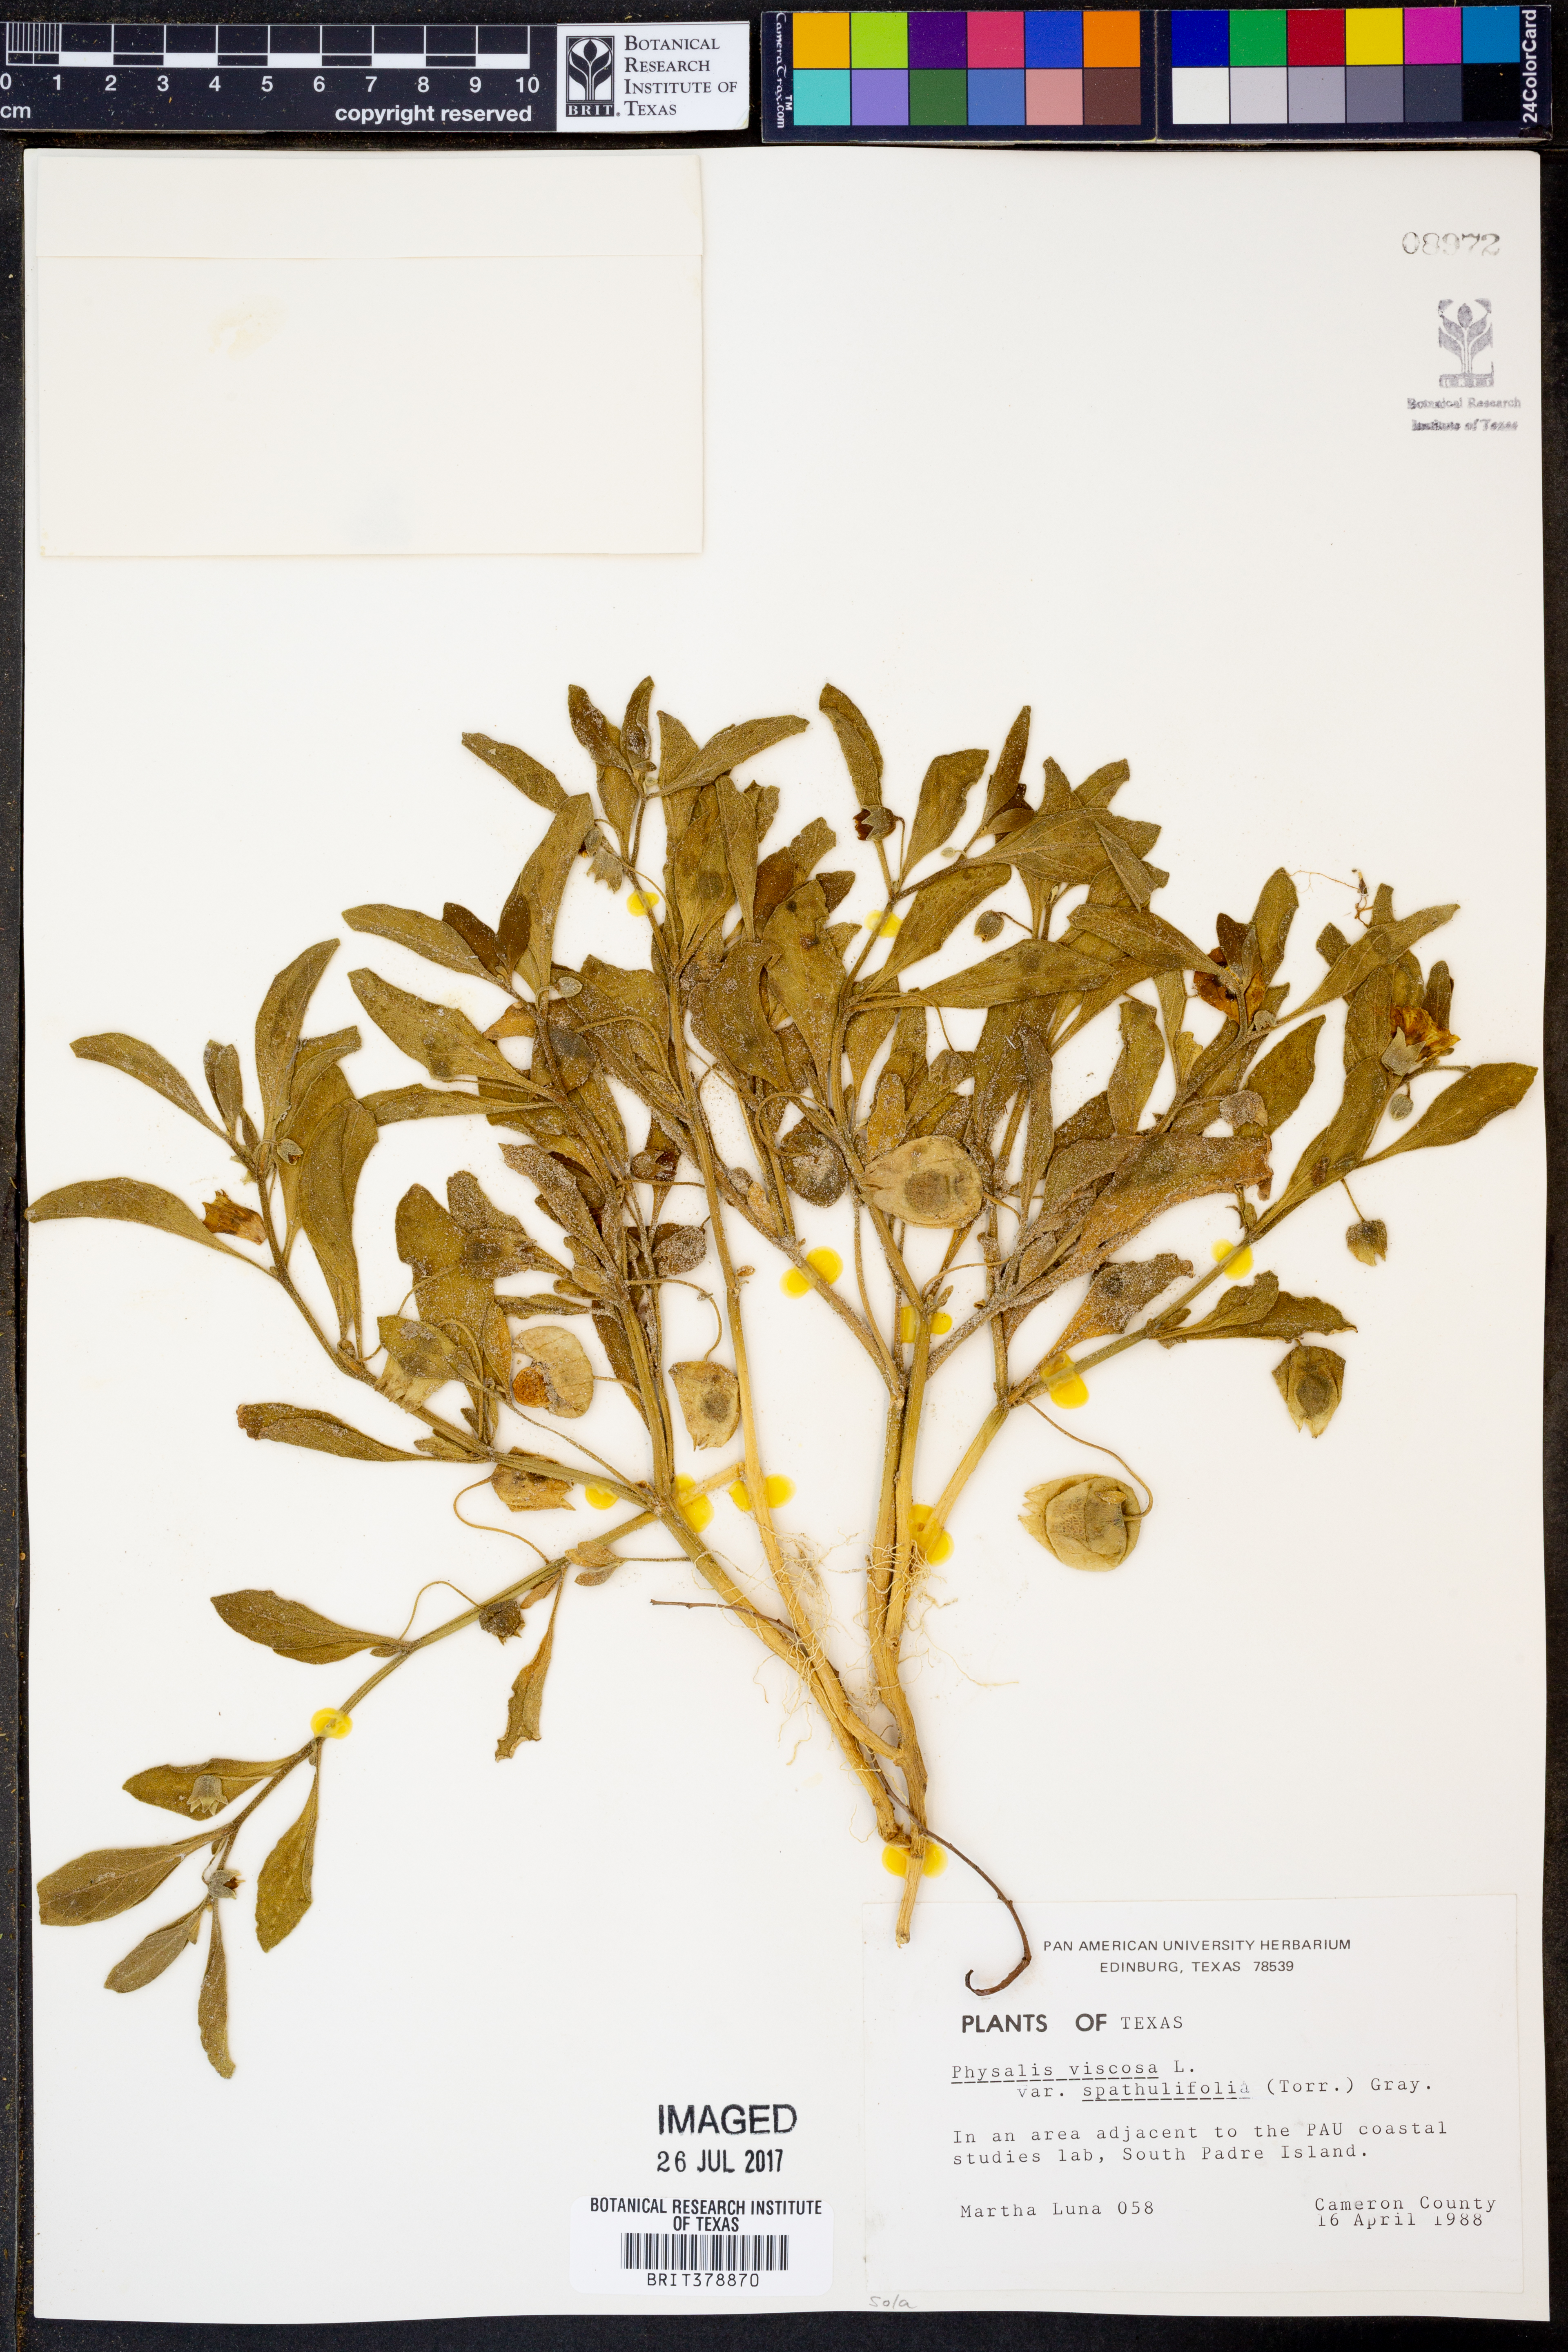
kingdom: Plantae
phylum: Tracheophyta
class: Magnoliopsida
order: Solanales
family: Solanaceae
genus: Physalis
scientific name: Physalis cinerascens
